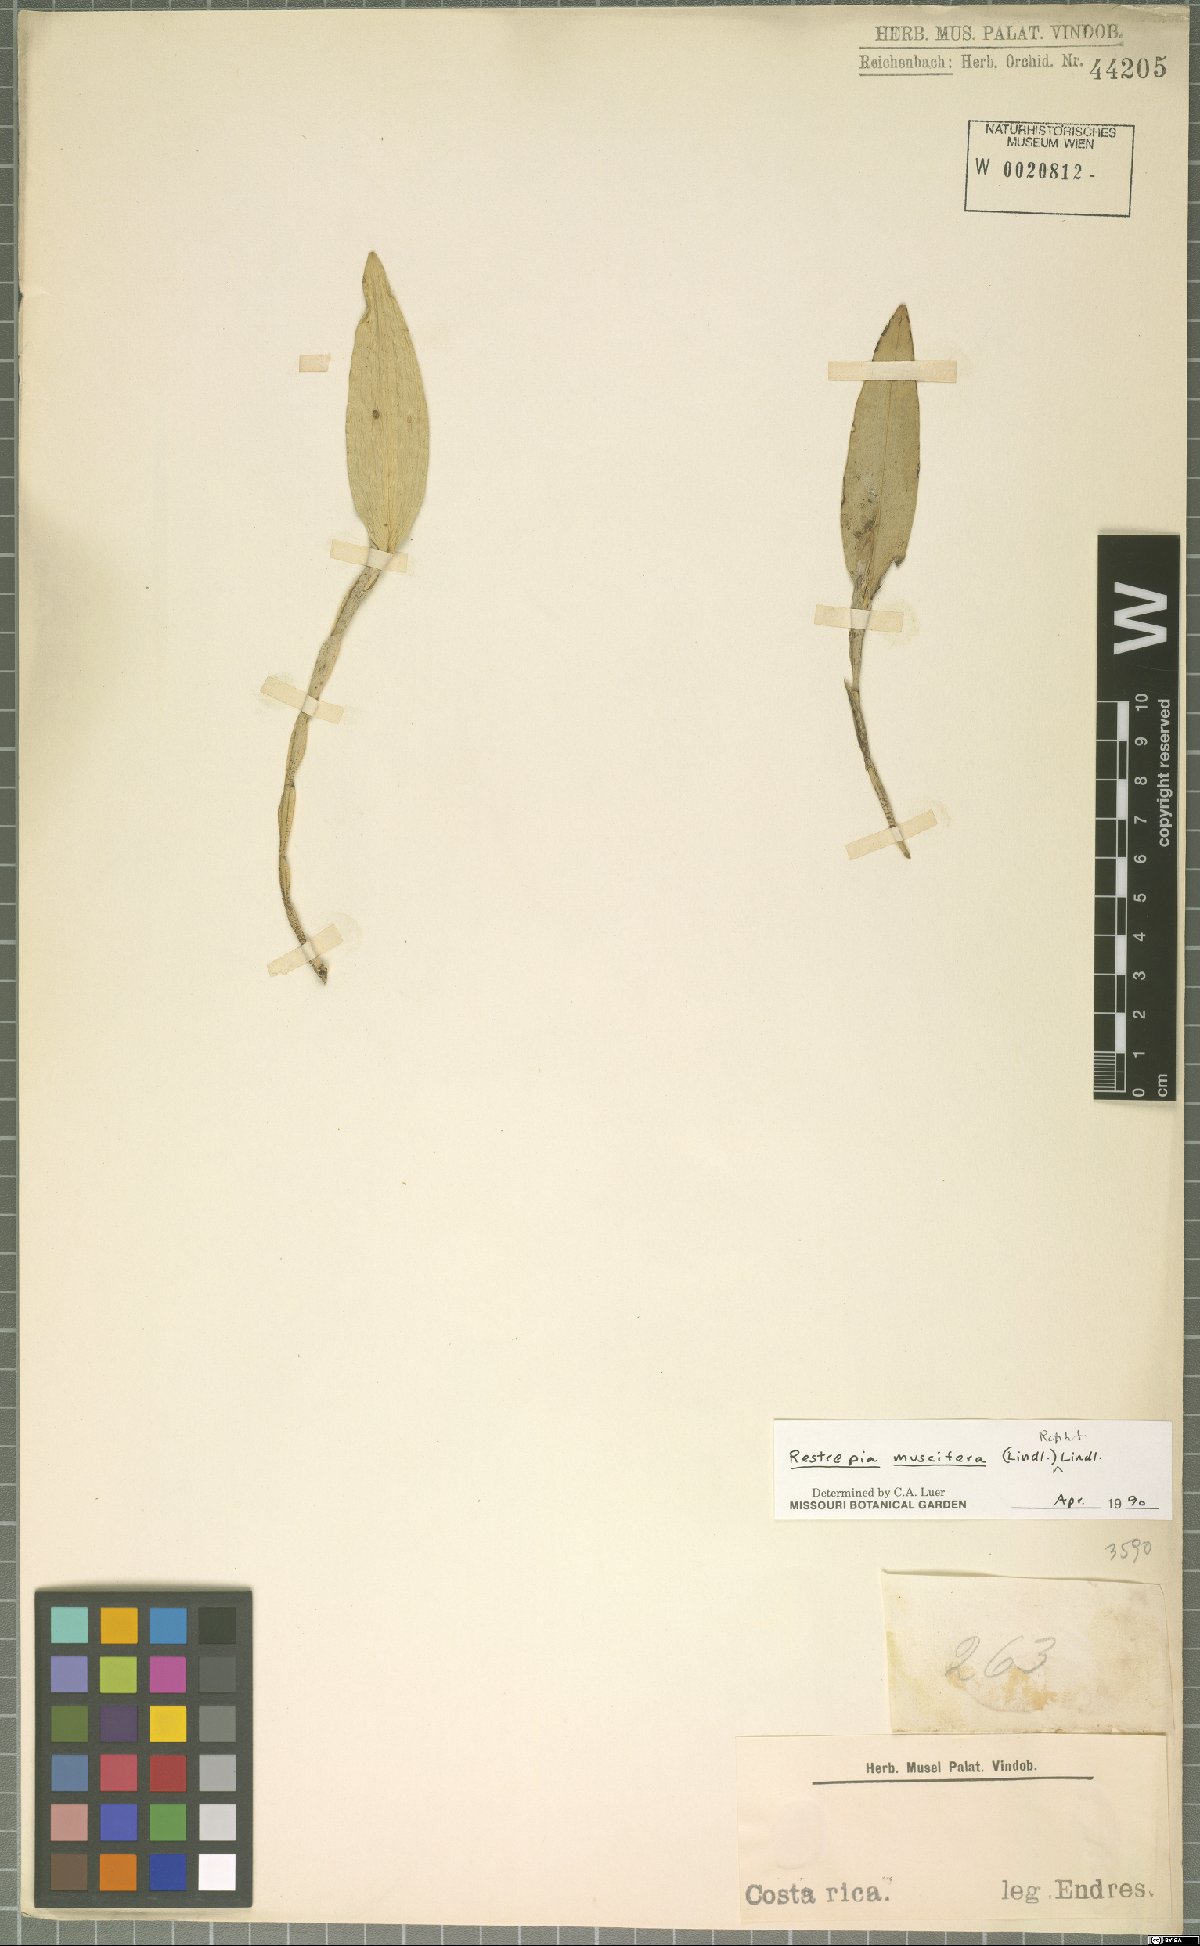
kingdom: Plantae
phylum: Tracheophyta
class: Liliopsida
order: Asparagales
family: Orchidaceae
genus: Restrepia
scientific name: Restrepia muscifera
